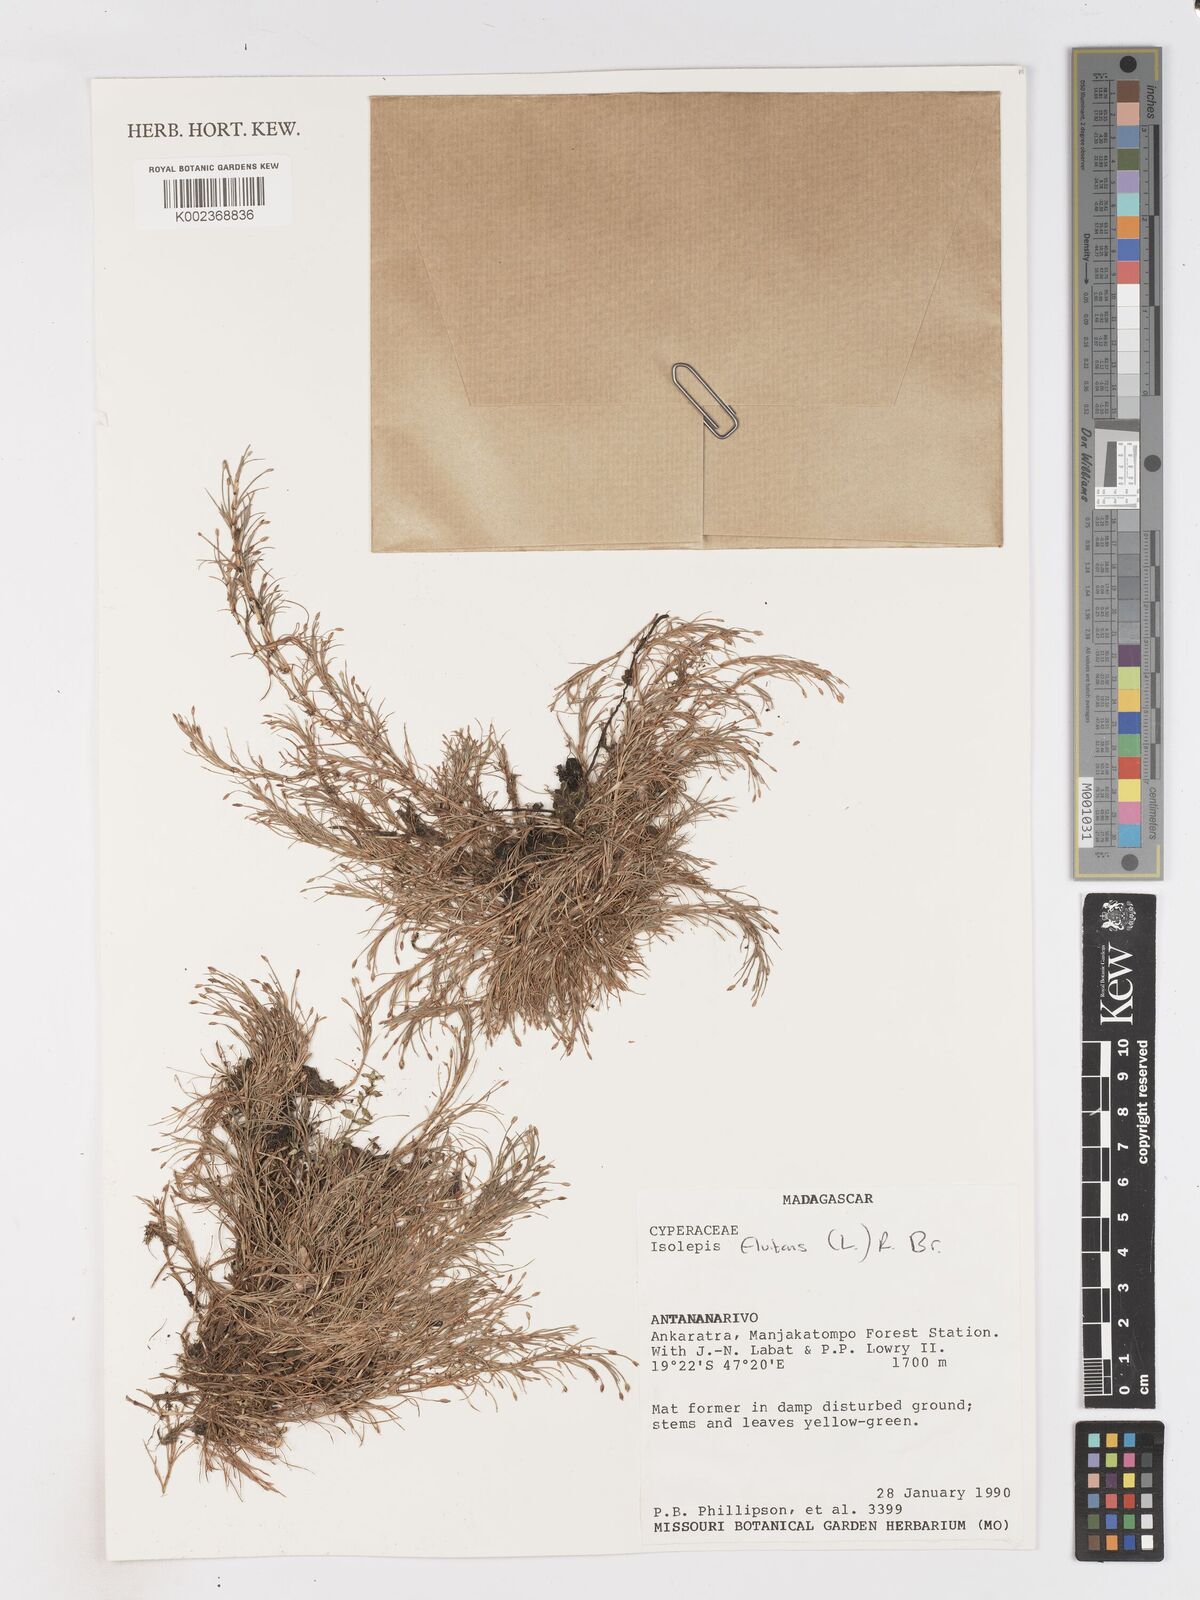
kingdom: Plantae
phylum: Tracheophyta
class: Liliopsida
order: Poales
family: Cyperaceae
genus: Isolepis
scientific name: Isolepis fluitans
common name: Floating club-rush
